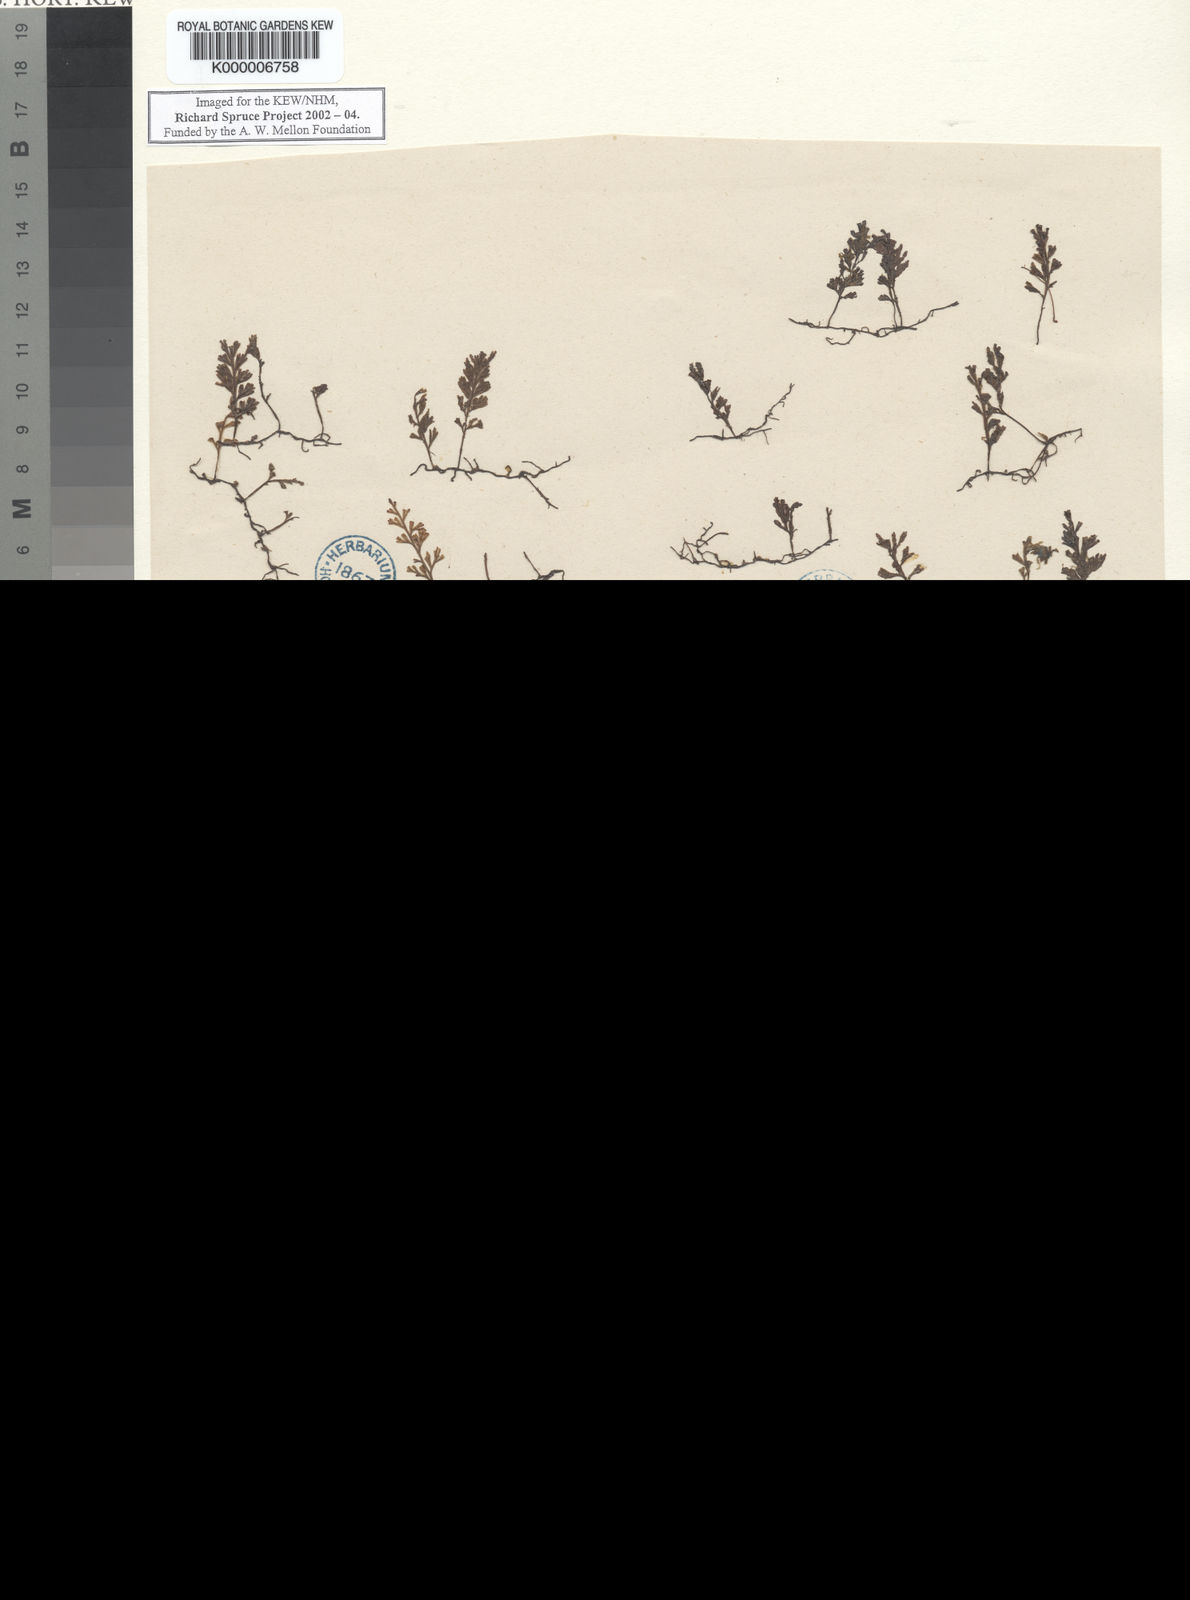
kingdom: Plantae
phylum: Tracheophyta
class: Polypodiopsida
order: Hymenophyllales
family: Hymenophyllaceae
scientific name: Hymenophyllaceae
